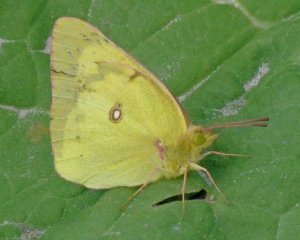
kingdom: Animalia
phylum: Arthropoda
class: Insecta
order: Lepidoptera
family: Pieridae
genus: Colias
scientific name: Colias philodice
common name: Clouded Sulphur
